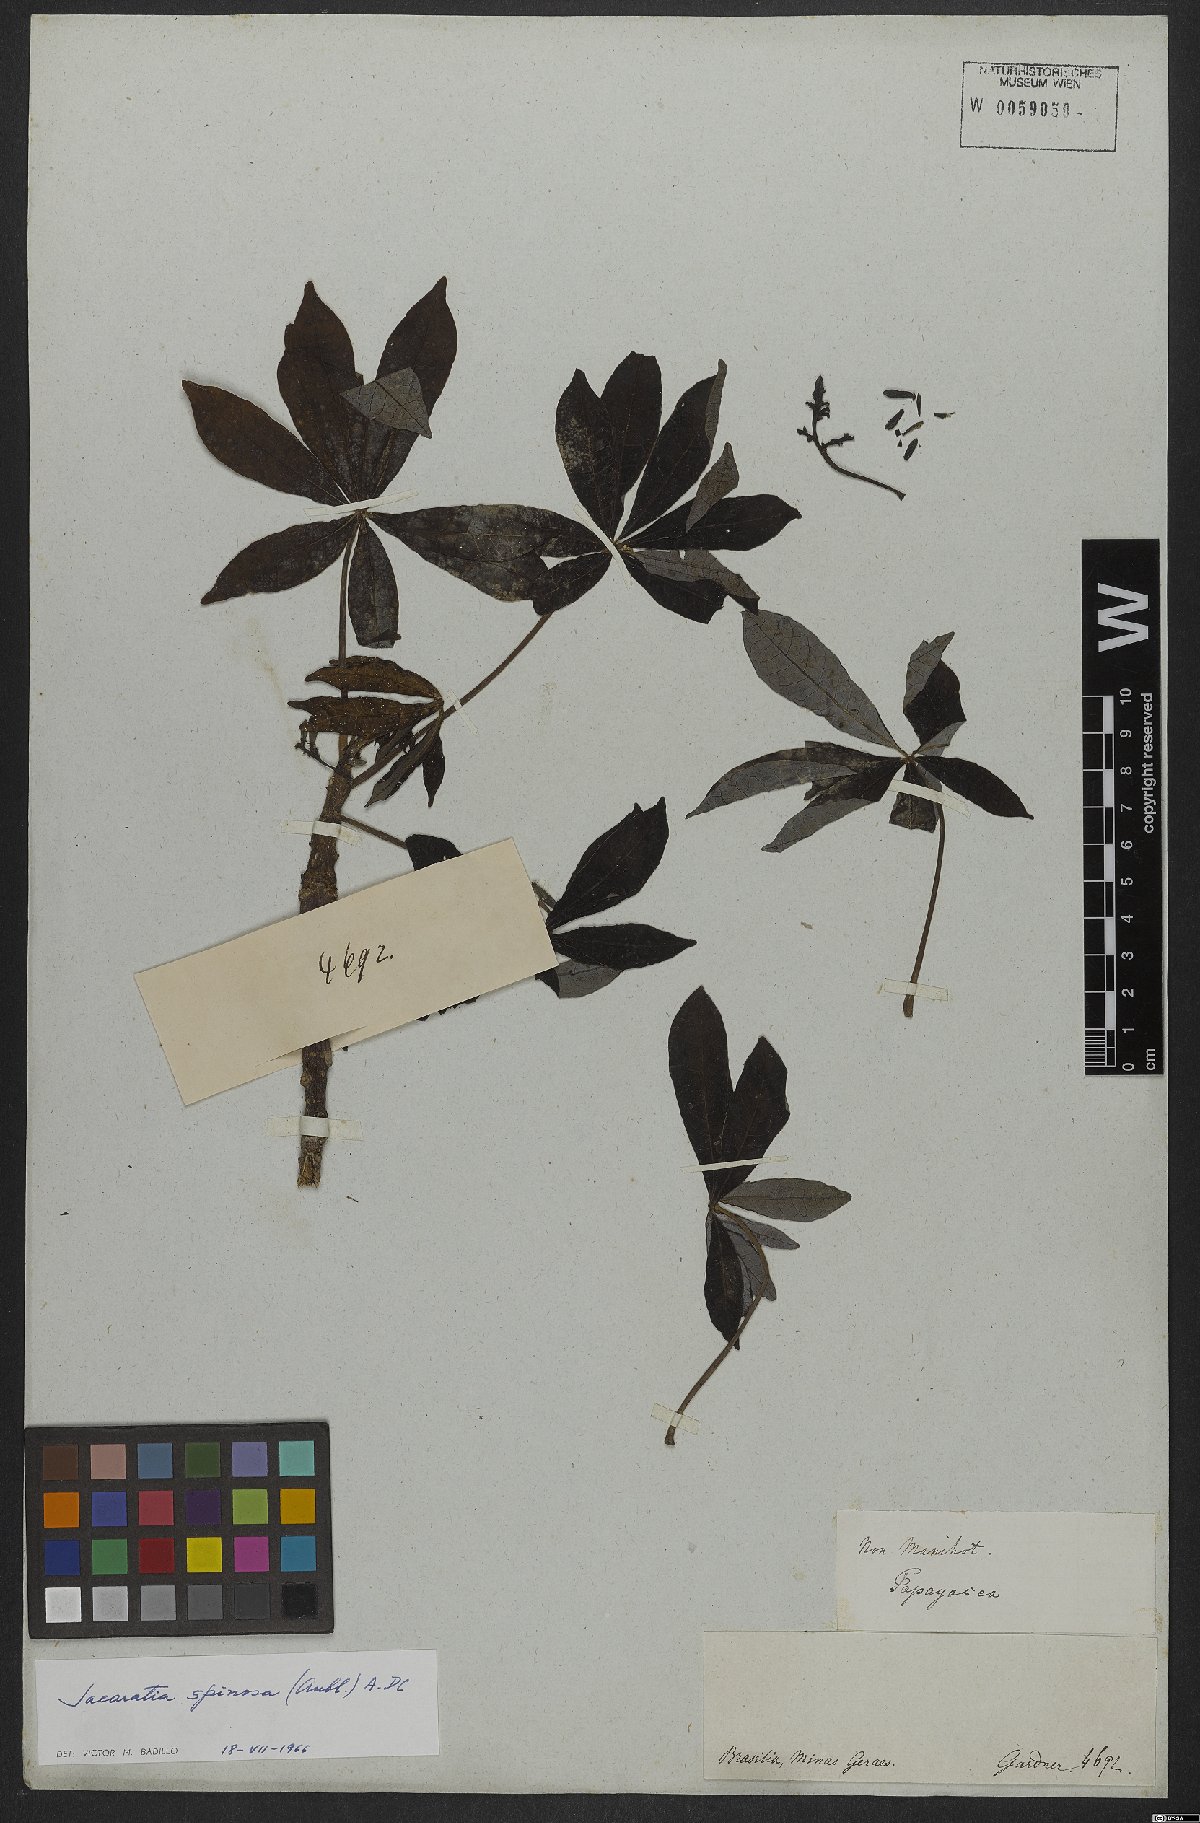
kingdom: Plantae
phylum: Tracheophyta
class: Magnoliopsida
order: Brassicales
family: Caricaceae
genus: Jacaratia
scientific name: Jacaratia spinosa
